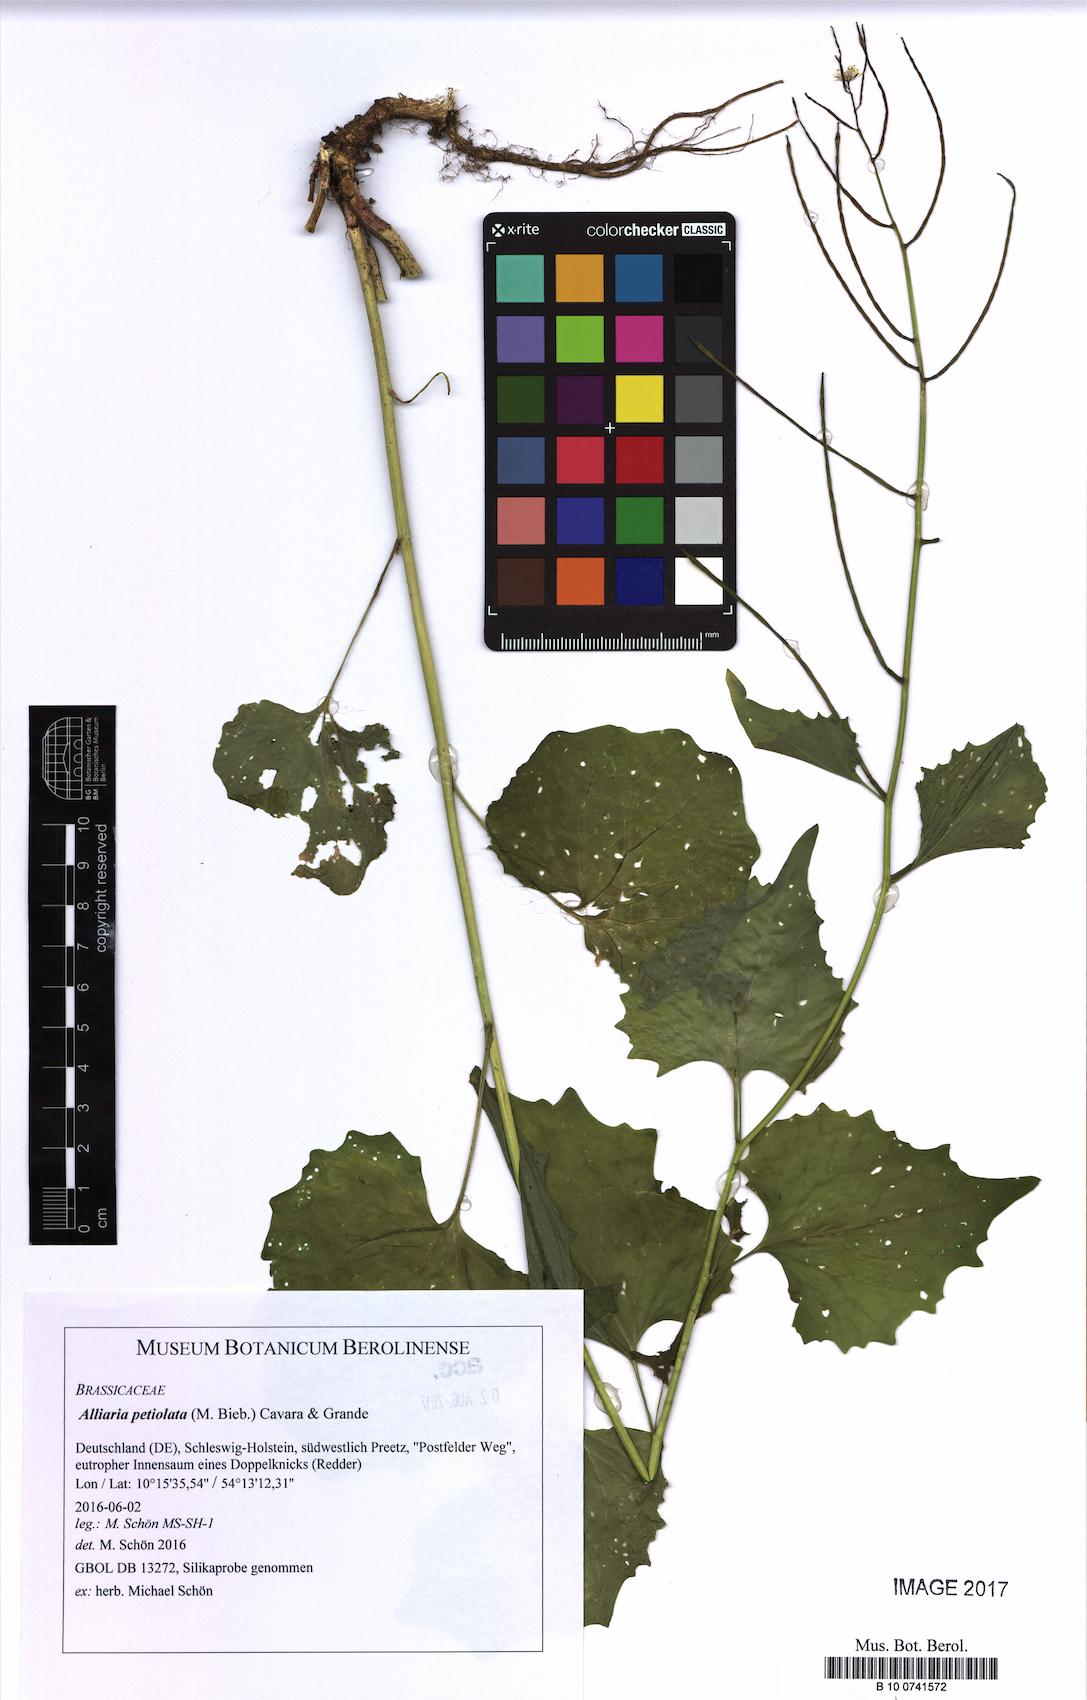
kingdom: Plantae
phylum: Tracheophyta
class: Magnoliopsida
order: Brassicales
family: Brassicaceae
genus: Alliaria
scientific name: Alliaria petiolata
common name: Garlic mustard
